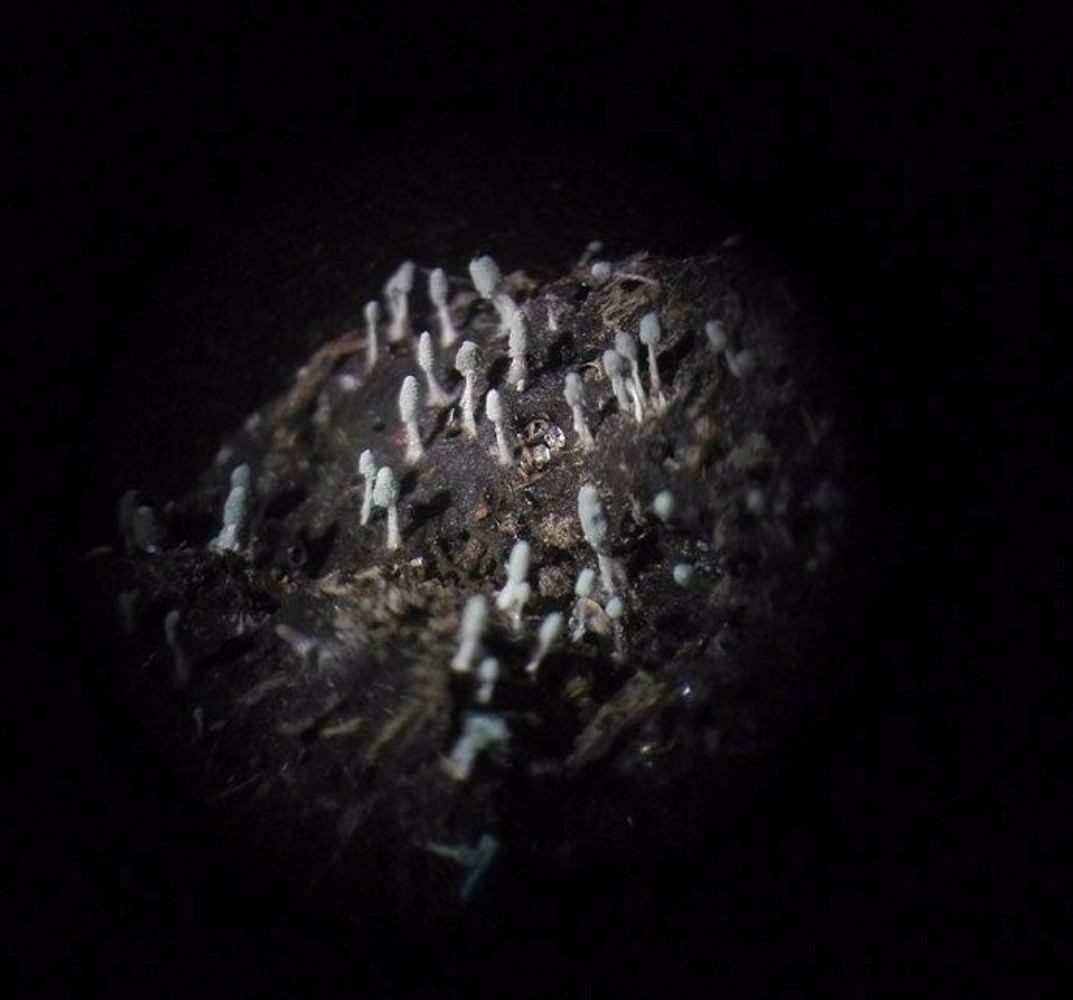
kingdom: Fungi
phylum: Ascomycota
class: Eurotiomycetes
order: Eurotiales
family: Aspergillaceae
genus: Penicillium
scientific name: Penicillium vulpinum
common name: kølle-penselskimmel
